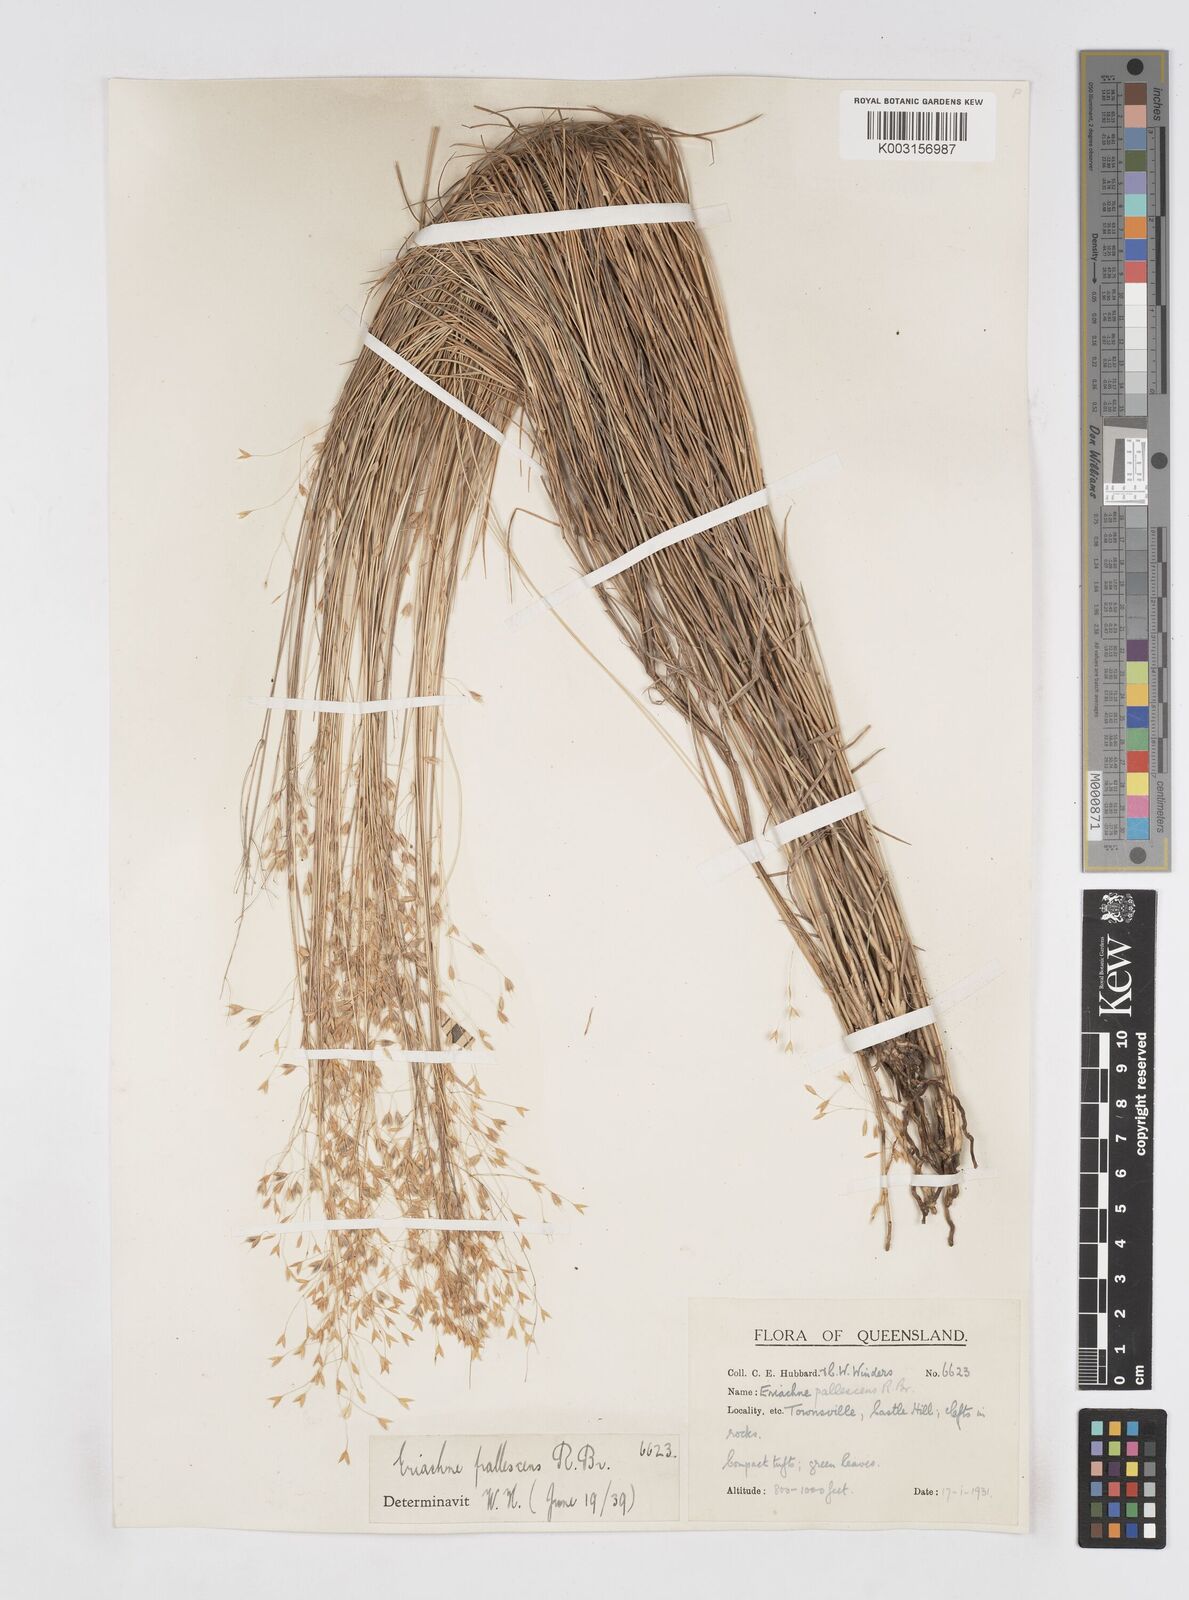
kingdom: Plantae
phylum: Tracheophyta
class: Liliopsida
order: Poales
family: Poaceae
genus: Eriachne
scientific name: Eriachne pallescens
